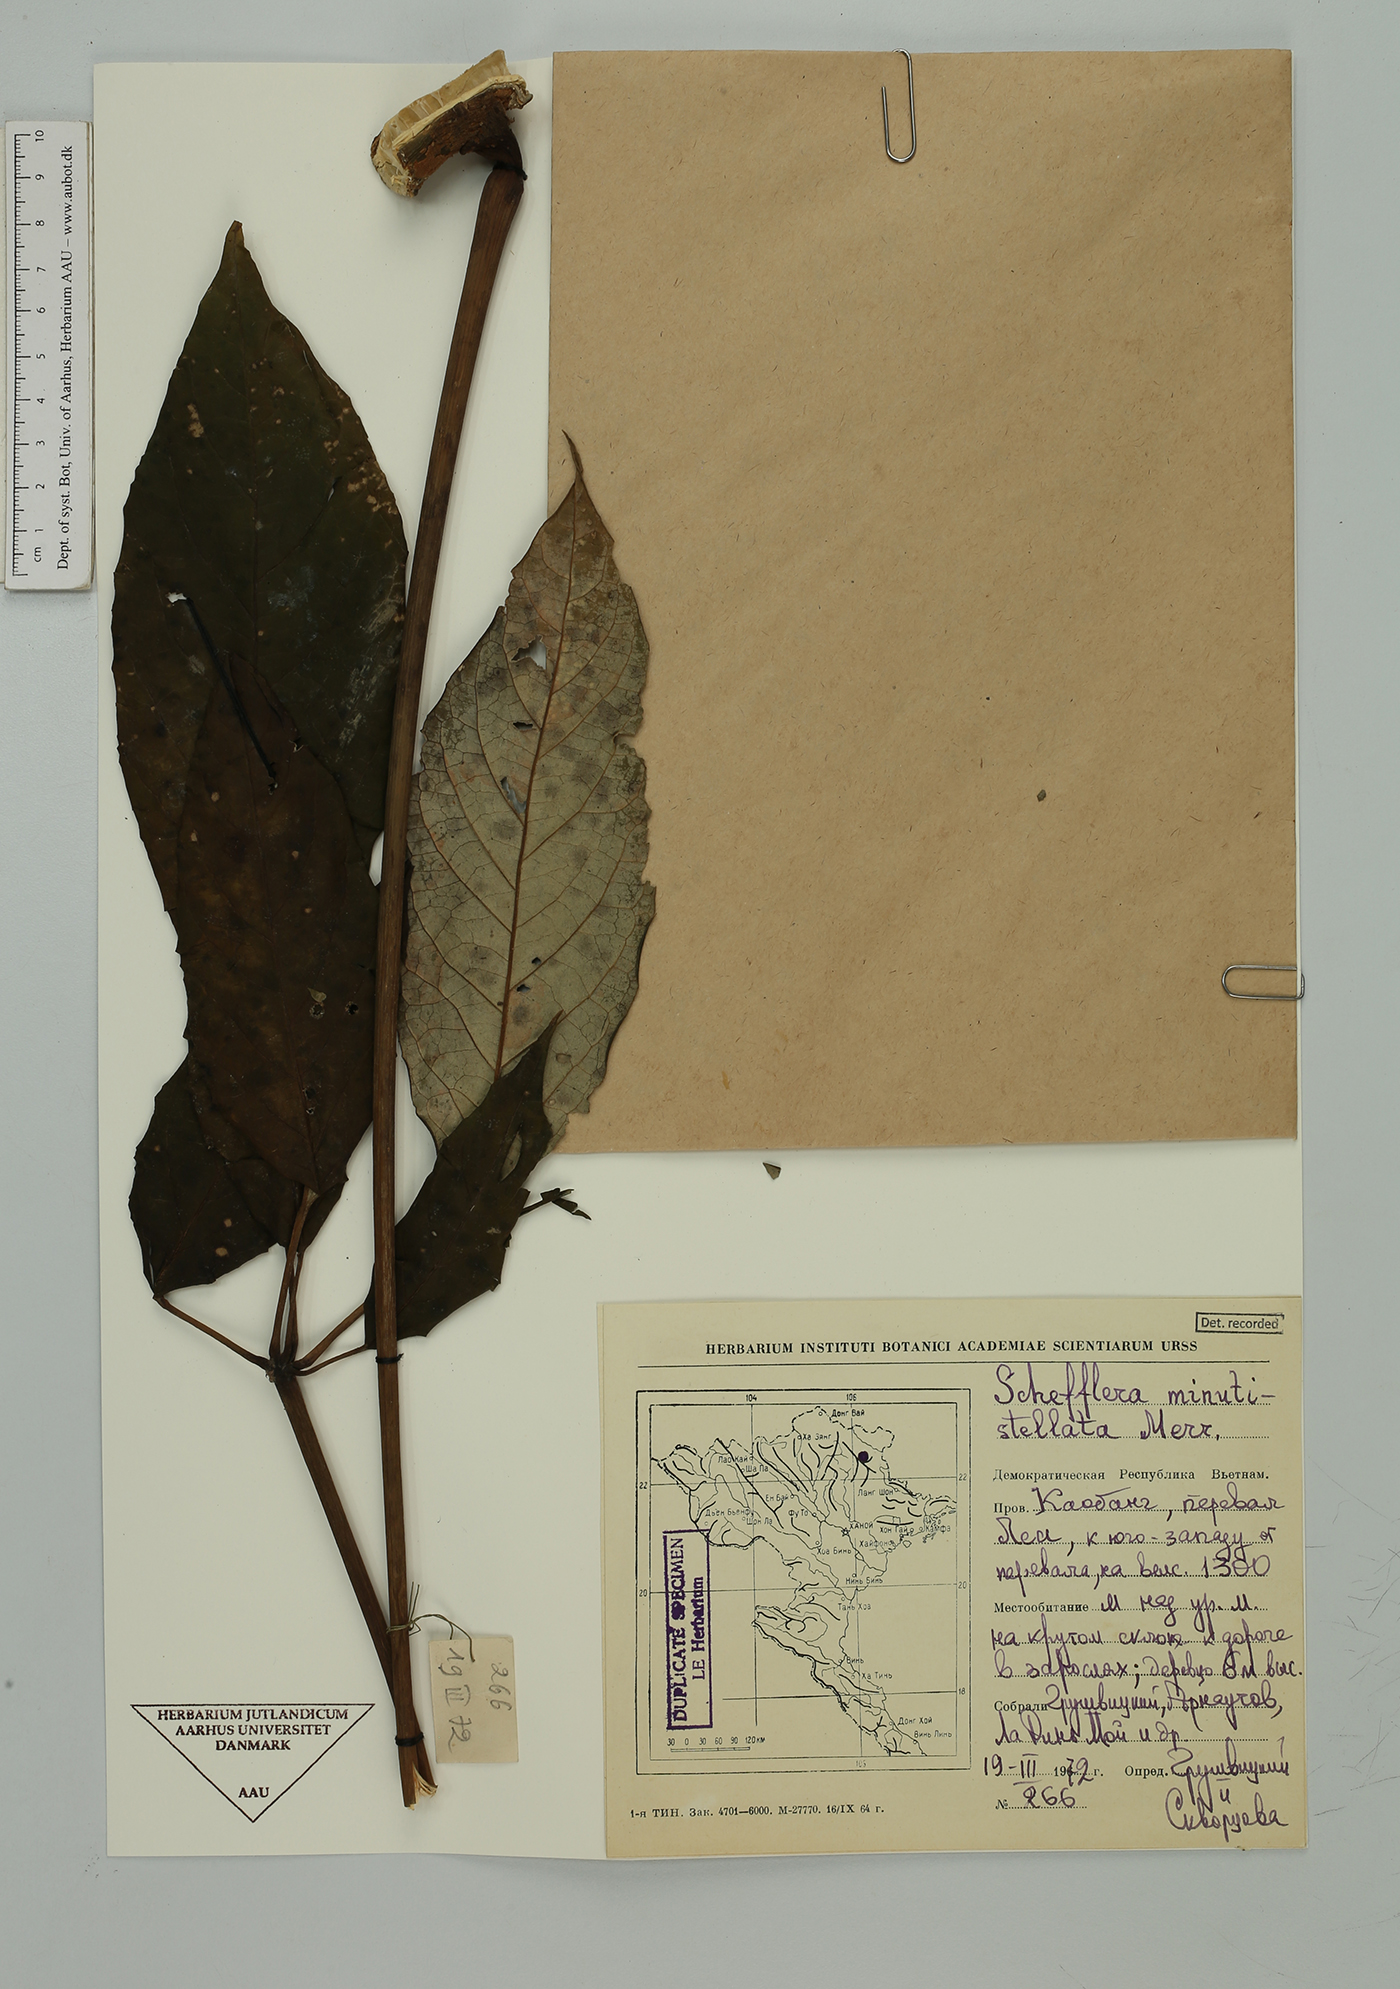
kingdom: Plantae
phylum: Tracheophyta
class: Magnoliopsida
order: Apiales
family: Araliaceae
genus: Heptapleurum
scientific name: Heptapleurum minutistellatum
